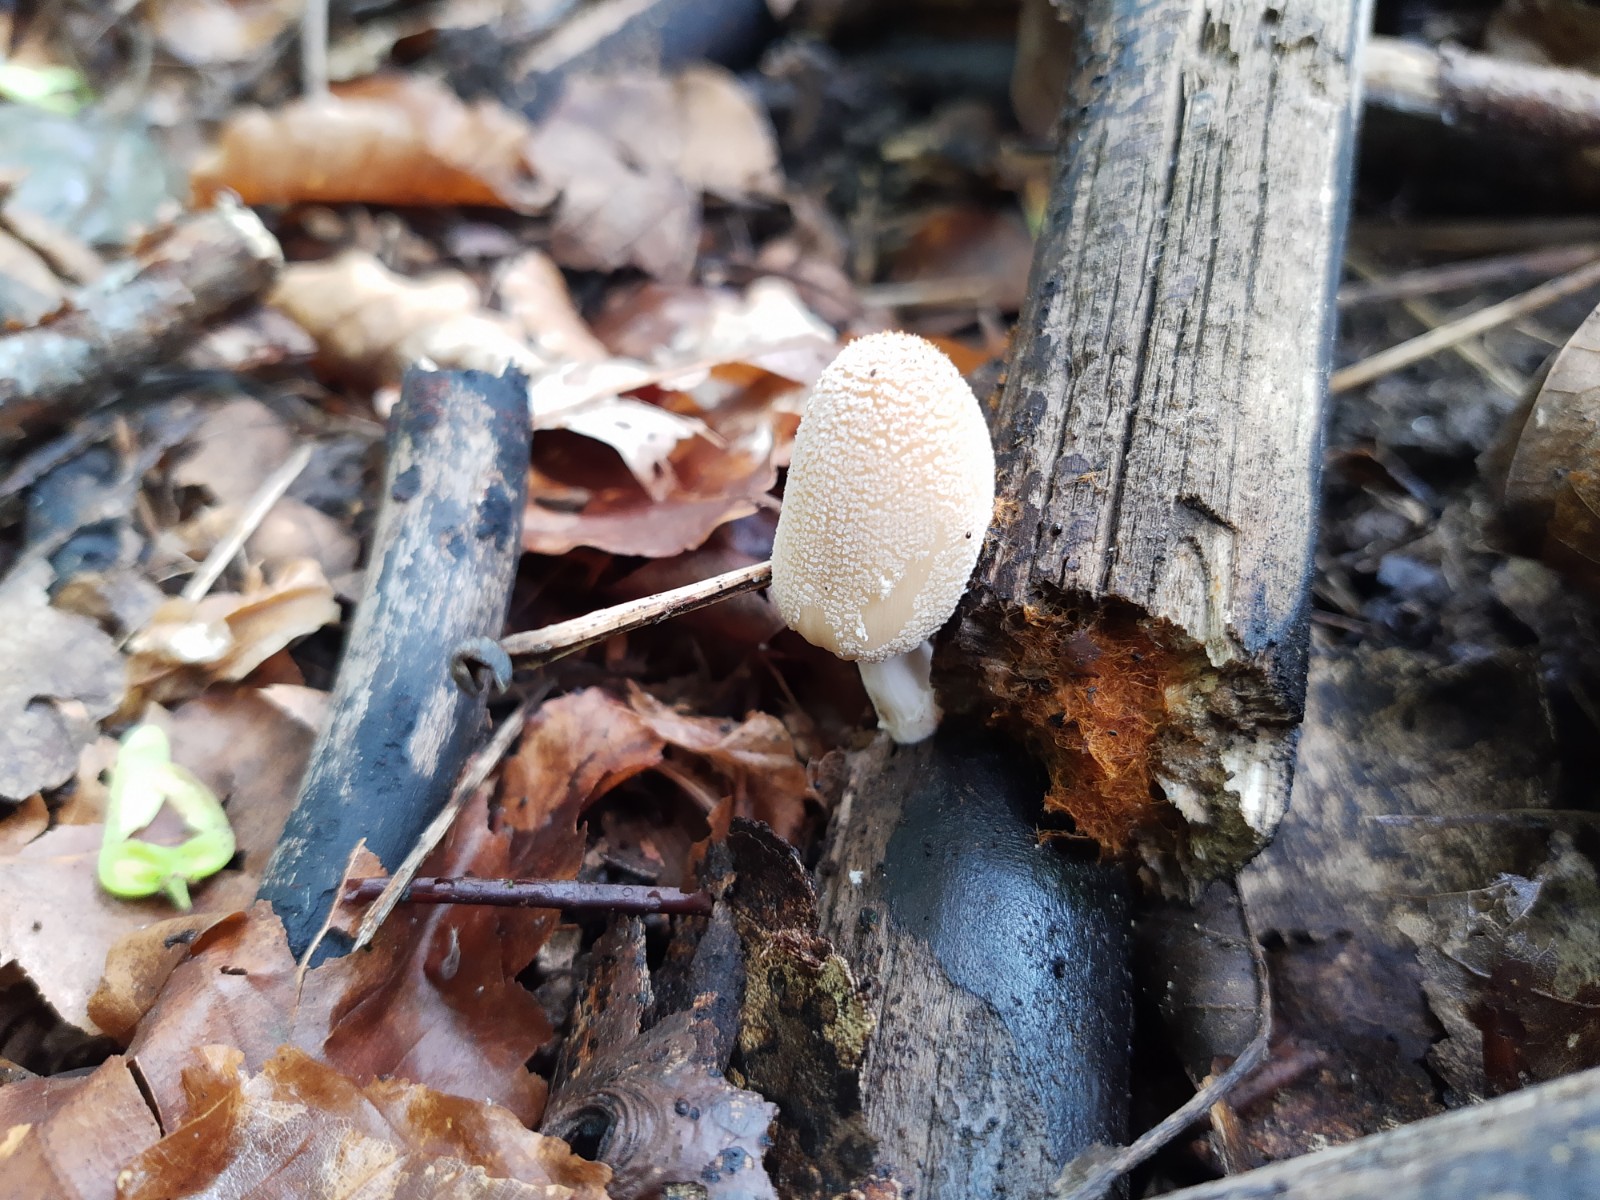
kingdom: Fungi
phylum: Basidiomycota
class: Agaricomycetes
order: Agaricales
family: Psathyrellaceae
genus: Coprinellus
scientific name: Coprinellus
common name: blækhat
